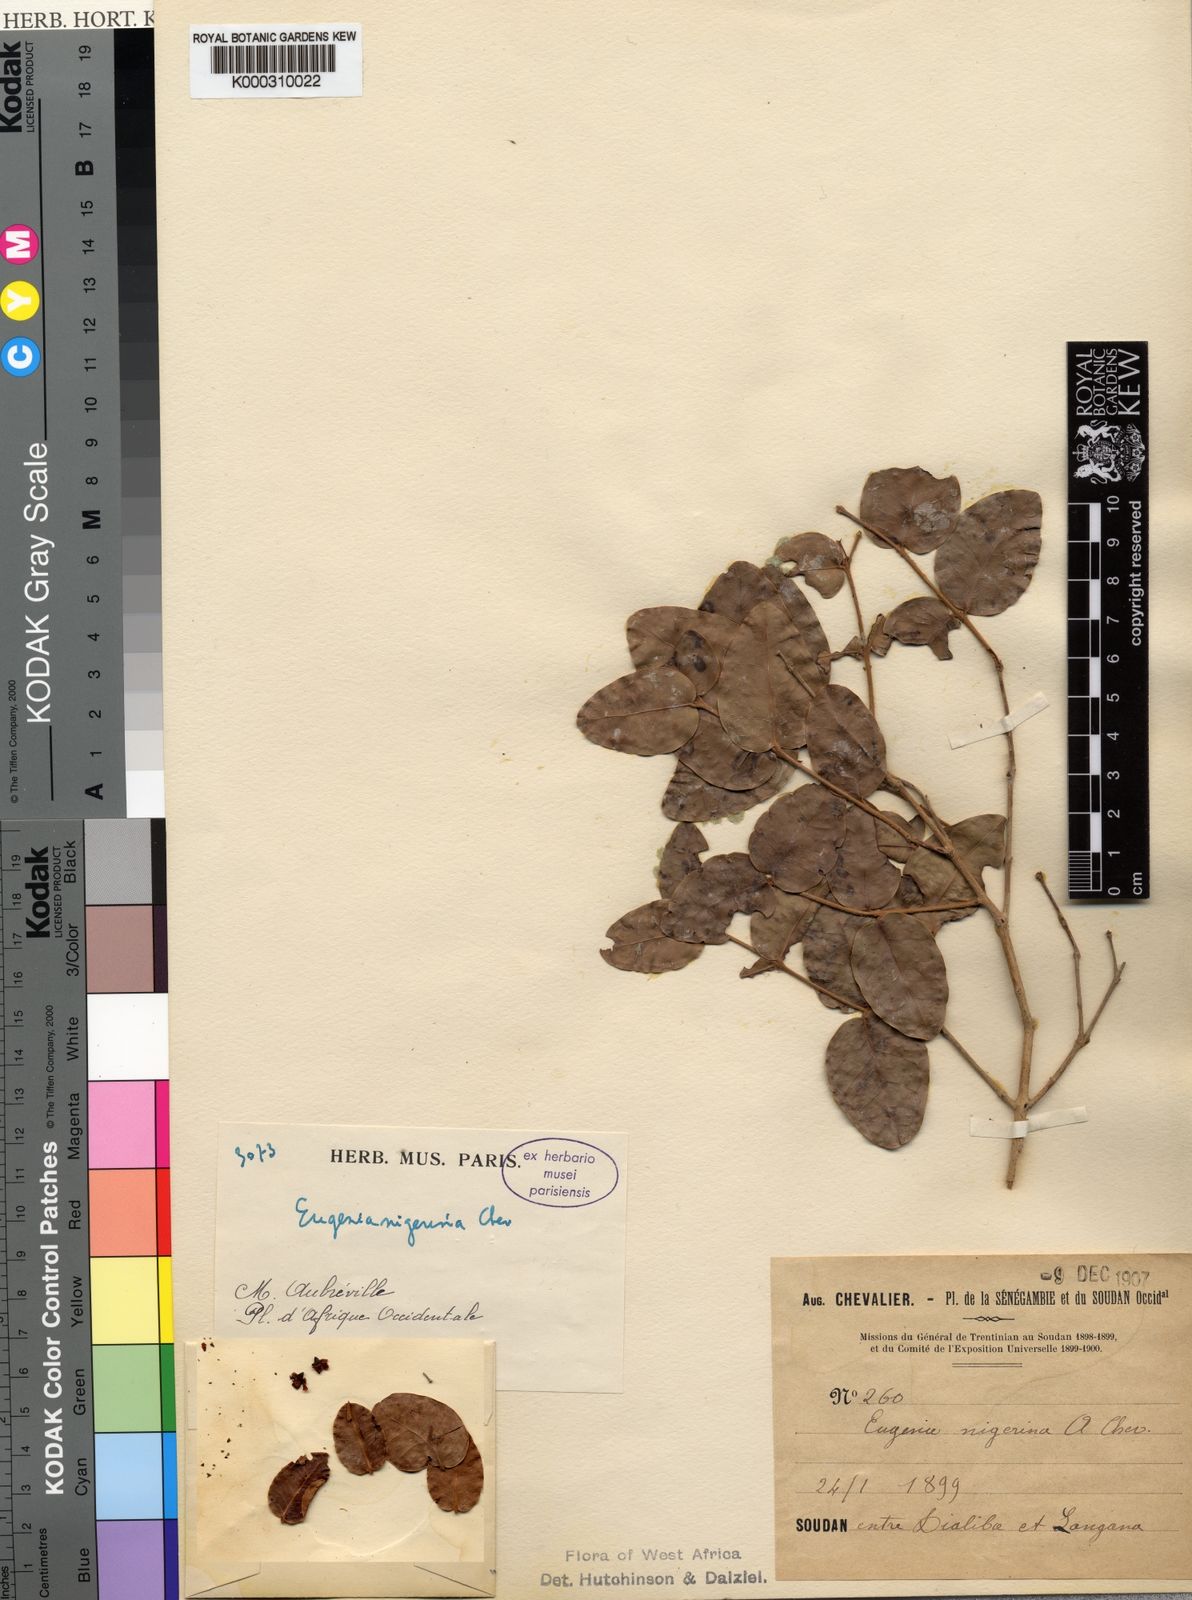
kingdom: Plantae
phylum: Tracheophyta
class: Magnoliopsida
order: Myrtales
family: Myrtaceae
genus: Eugenia
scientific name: Eugenia nigerina
